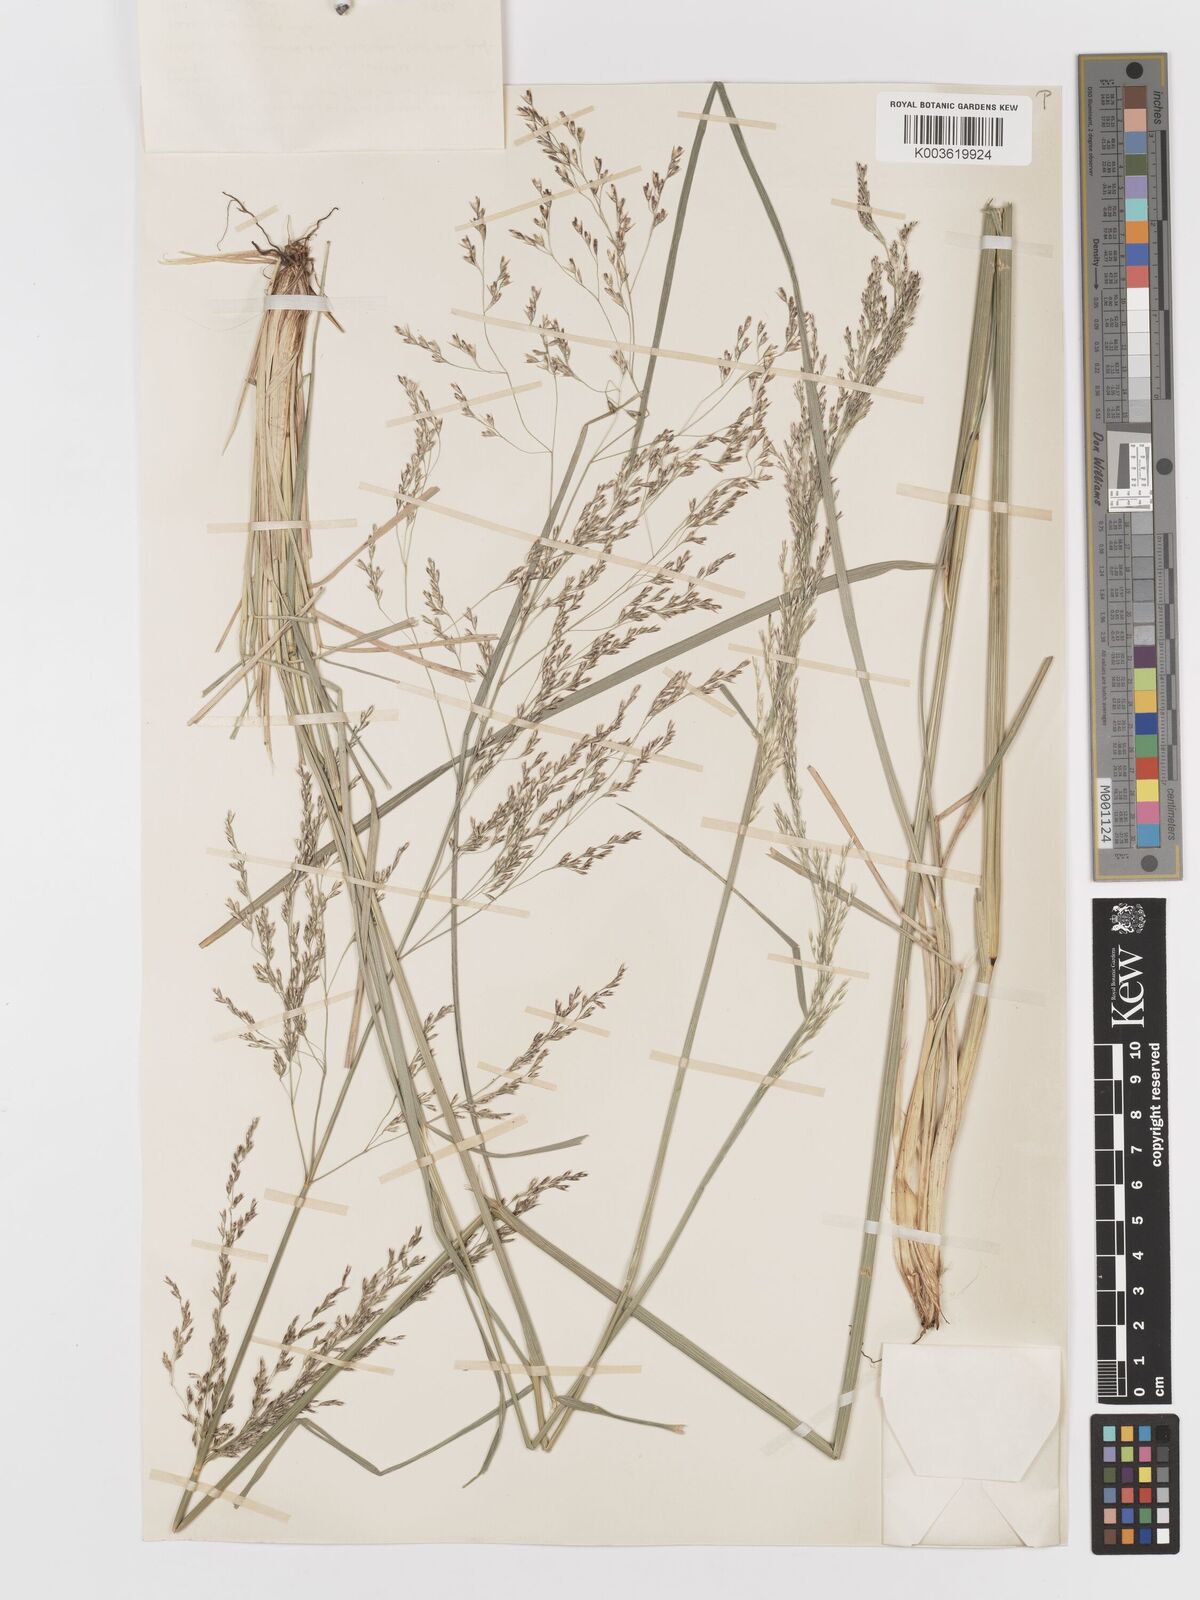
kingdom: Plantae
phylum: Tracheophyta
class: Liliopsida
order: Poales
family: Poaceae
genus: Deschampsia
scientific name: Deschampsia
